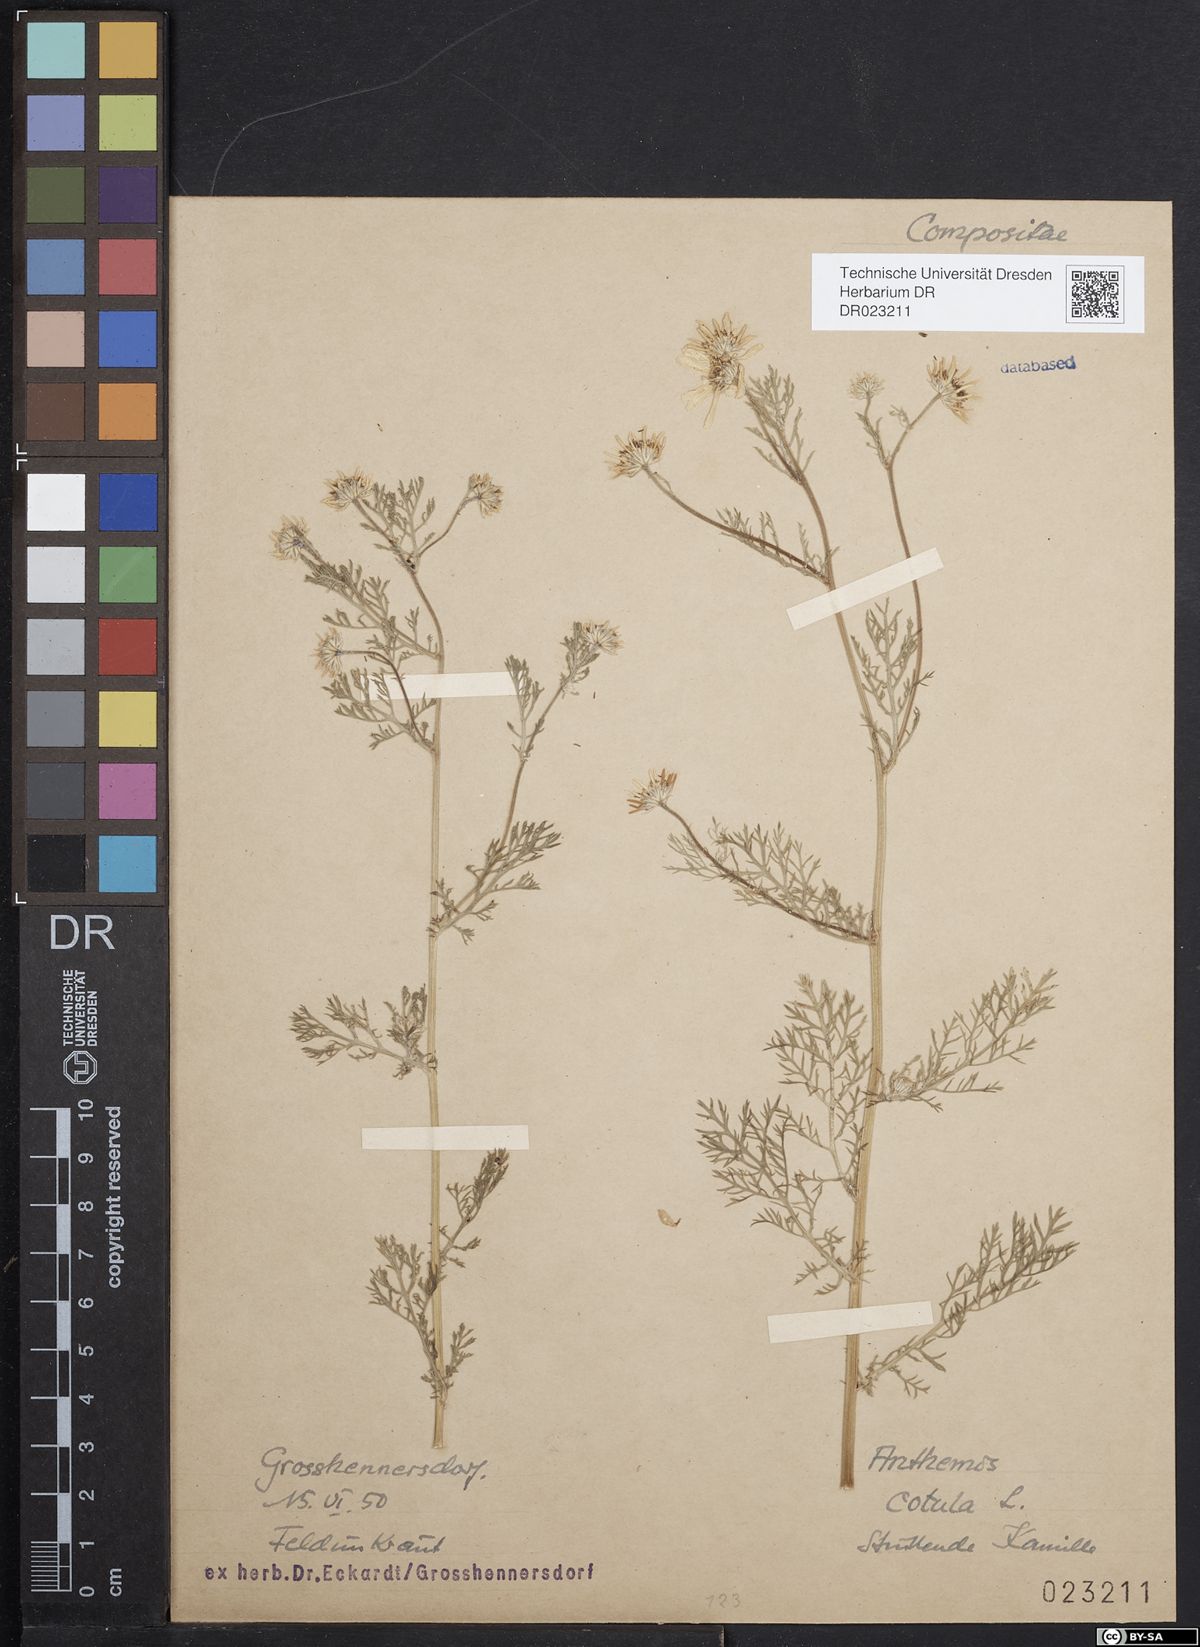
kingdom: Plantae
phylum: Tracheophyta
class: Magnoliopsida
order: Asterales
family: Asteraceae
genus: Anthemis
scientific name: Anthemis cotula
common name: Stinking chamomile
